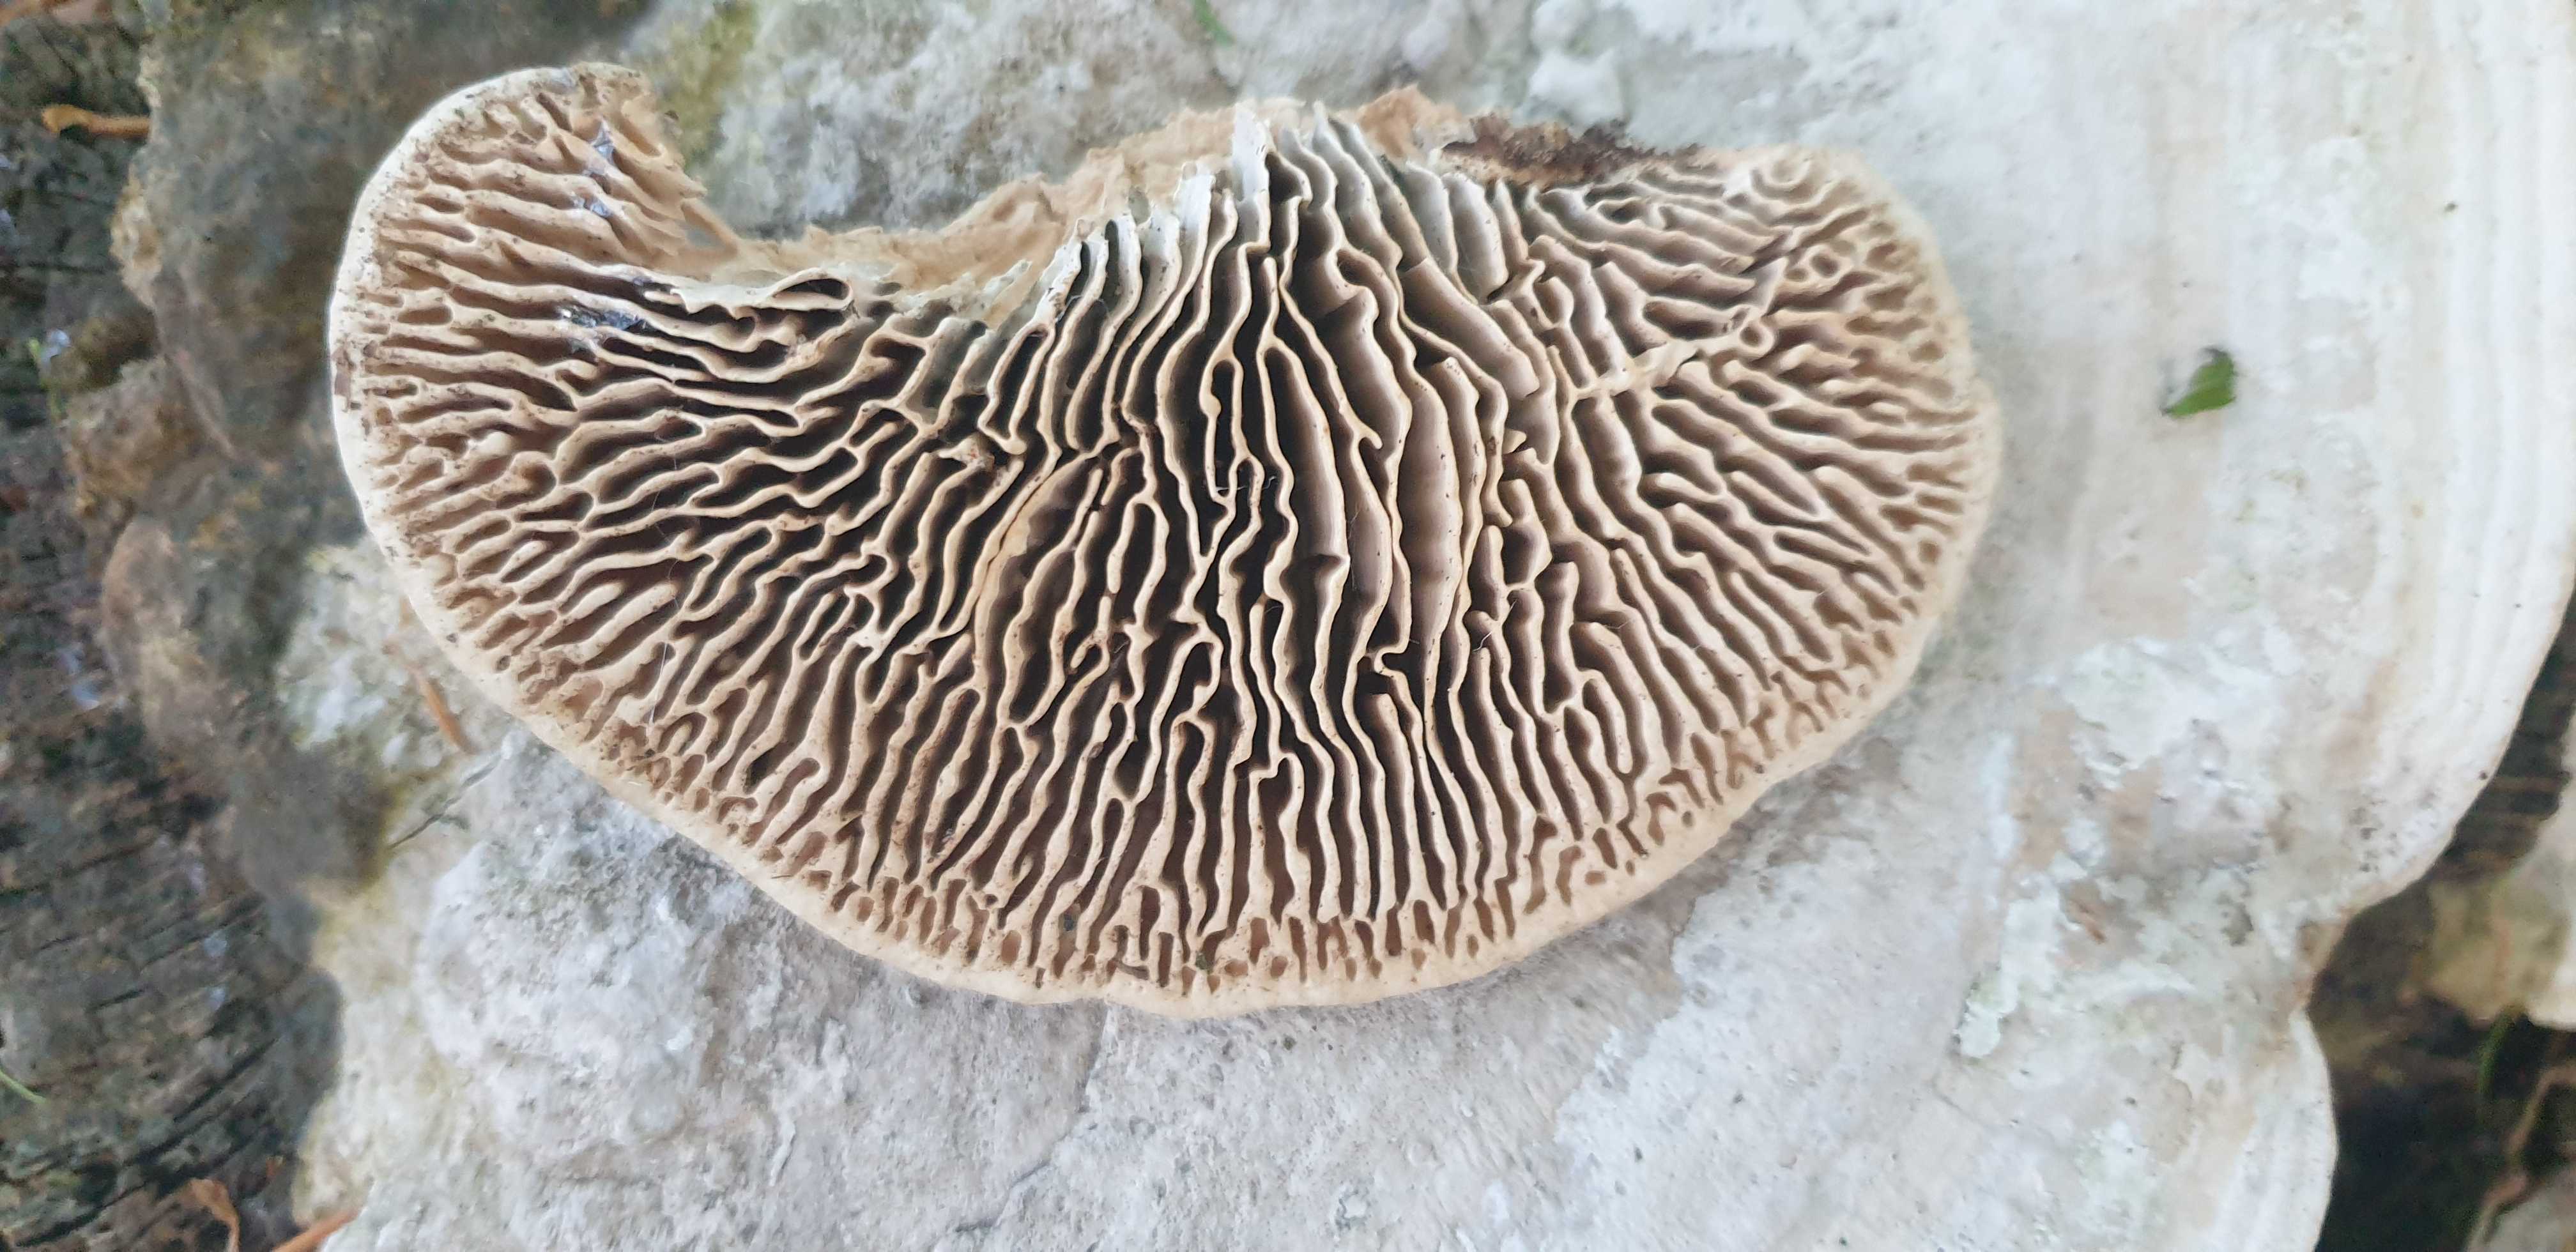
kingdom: Fungi
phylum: Basidiomycota
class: Agaricomycetes
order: Polyporales
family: Fomitopsidaceae
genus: Daedalea
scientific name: Daedalea quercina
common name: ege-labyrintsvamp
